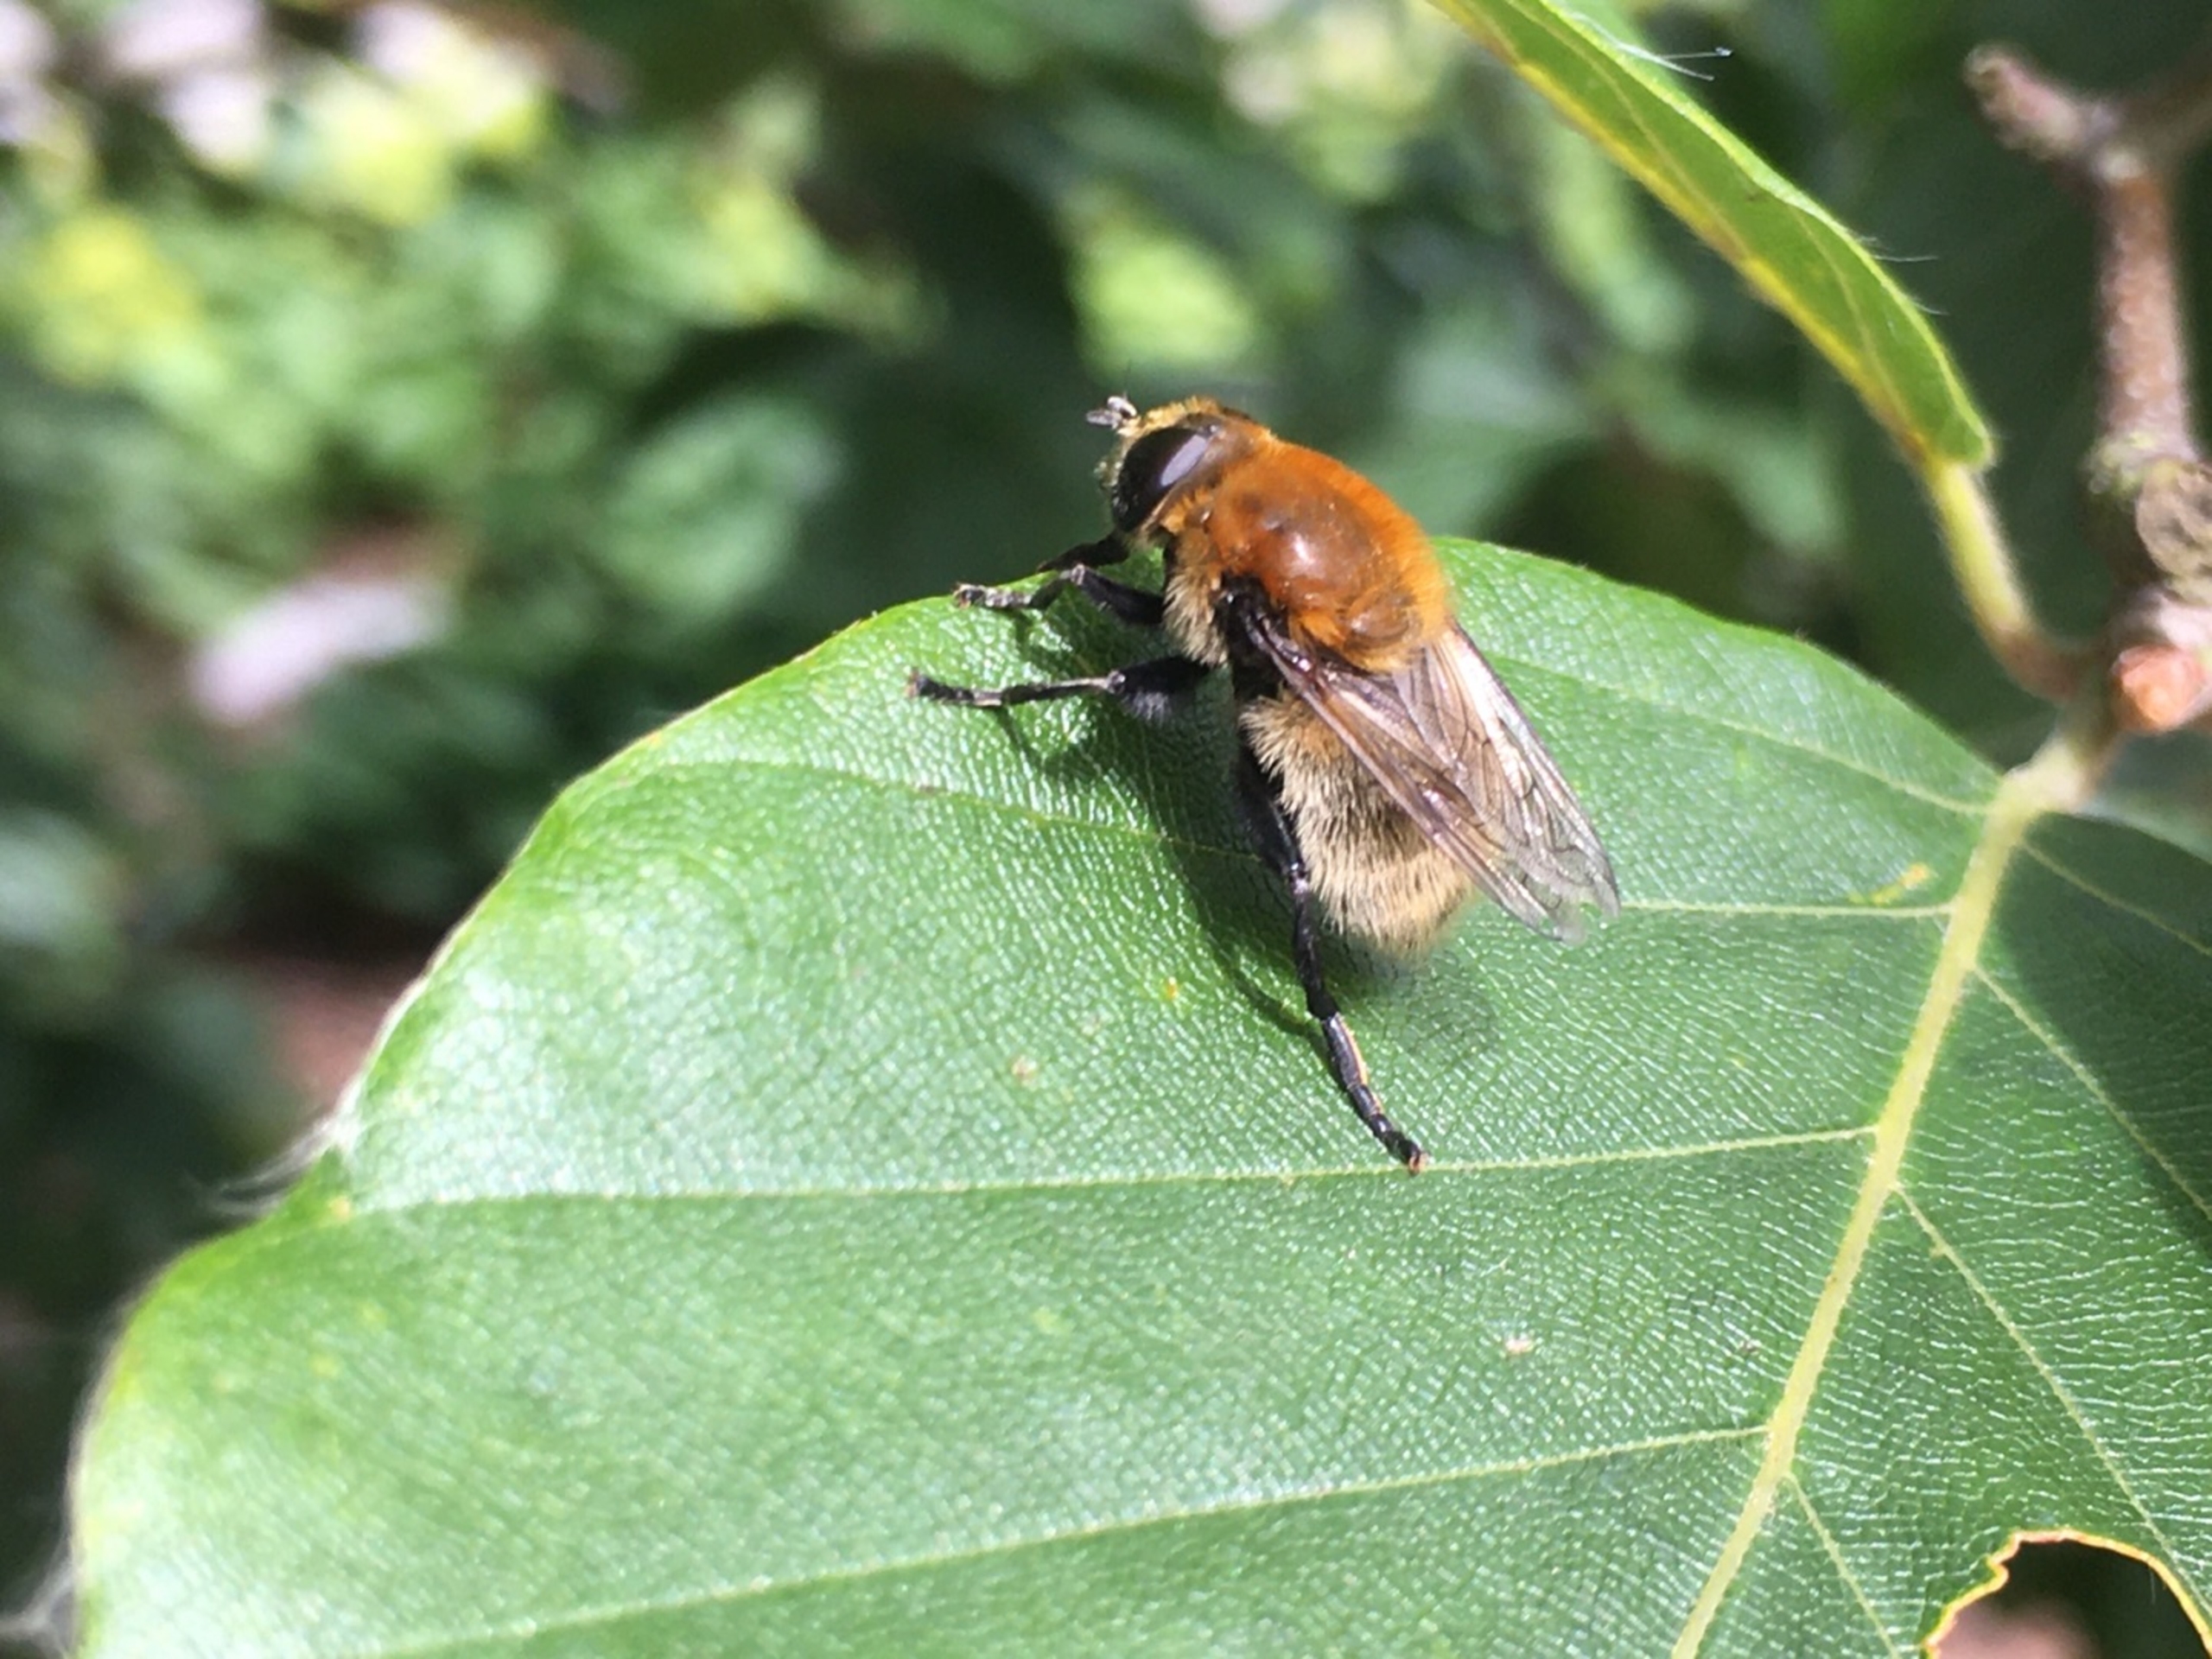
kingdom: Animalia
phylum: Arthropoda
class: Insecta
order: Diptera
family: Syrphidae
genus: Merodon
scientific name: Merodon equestris
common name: Stor narcisflue
